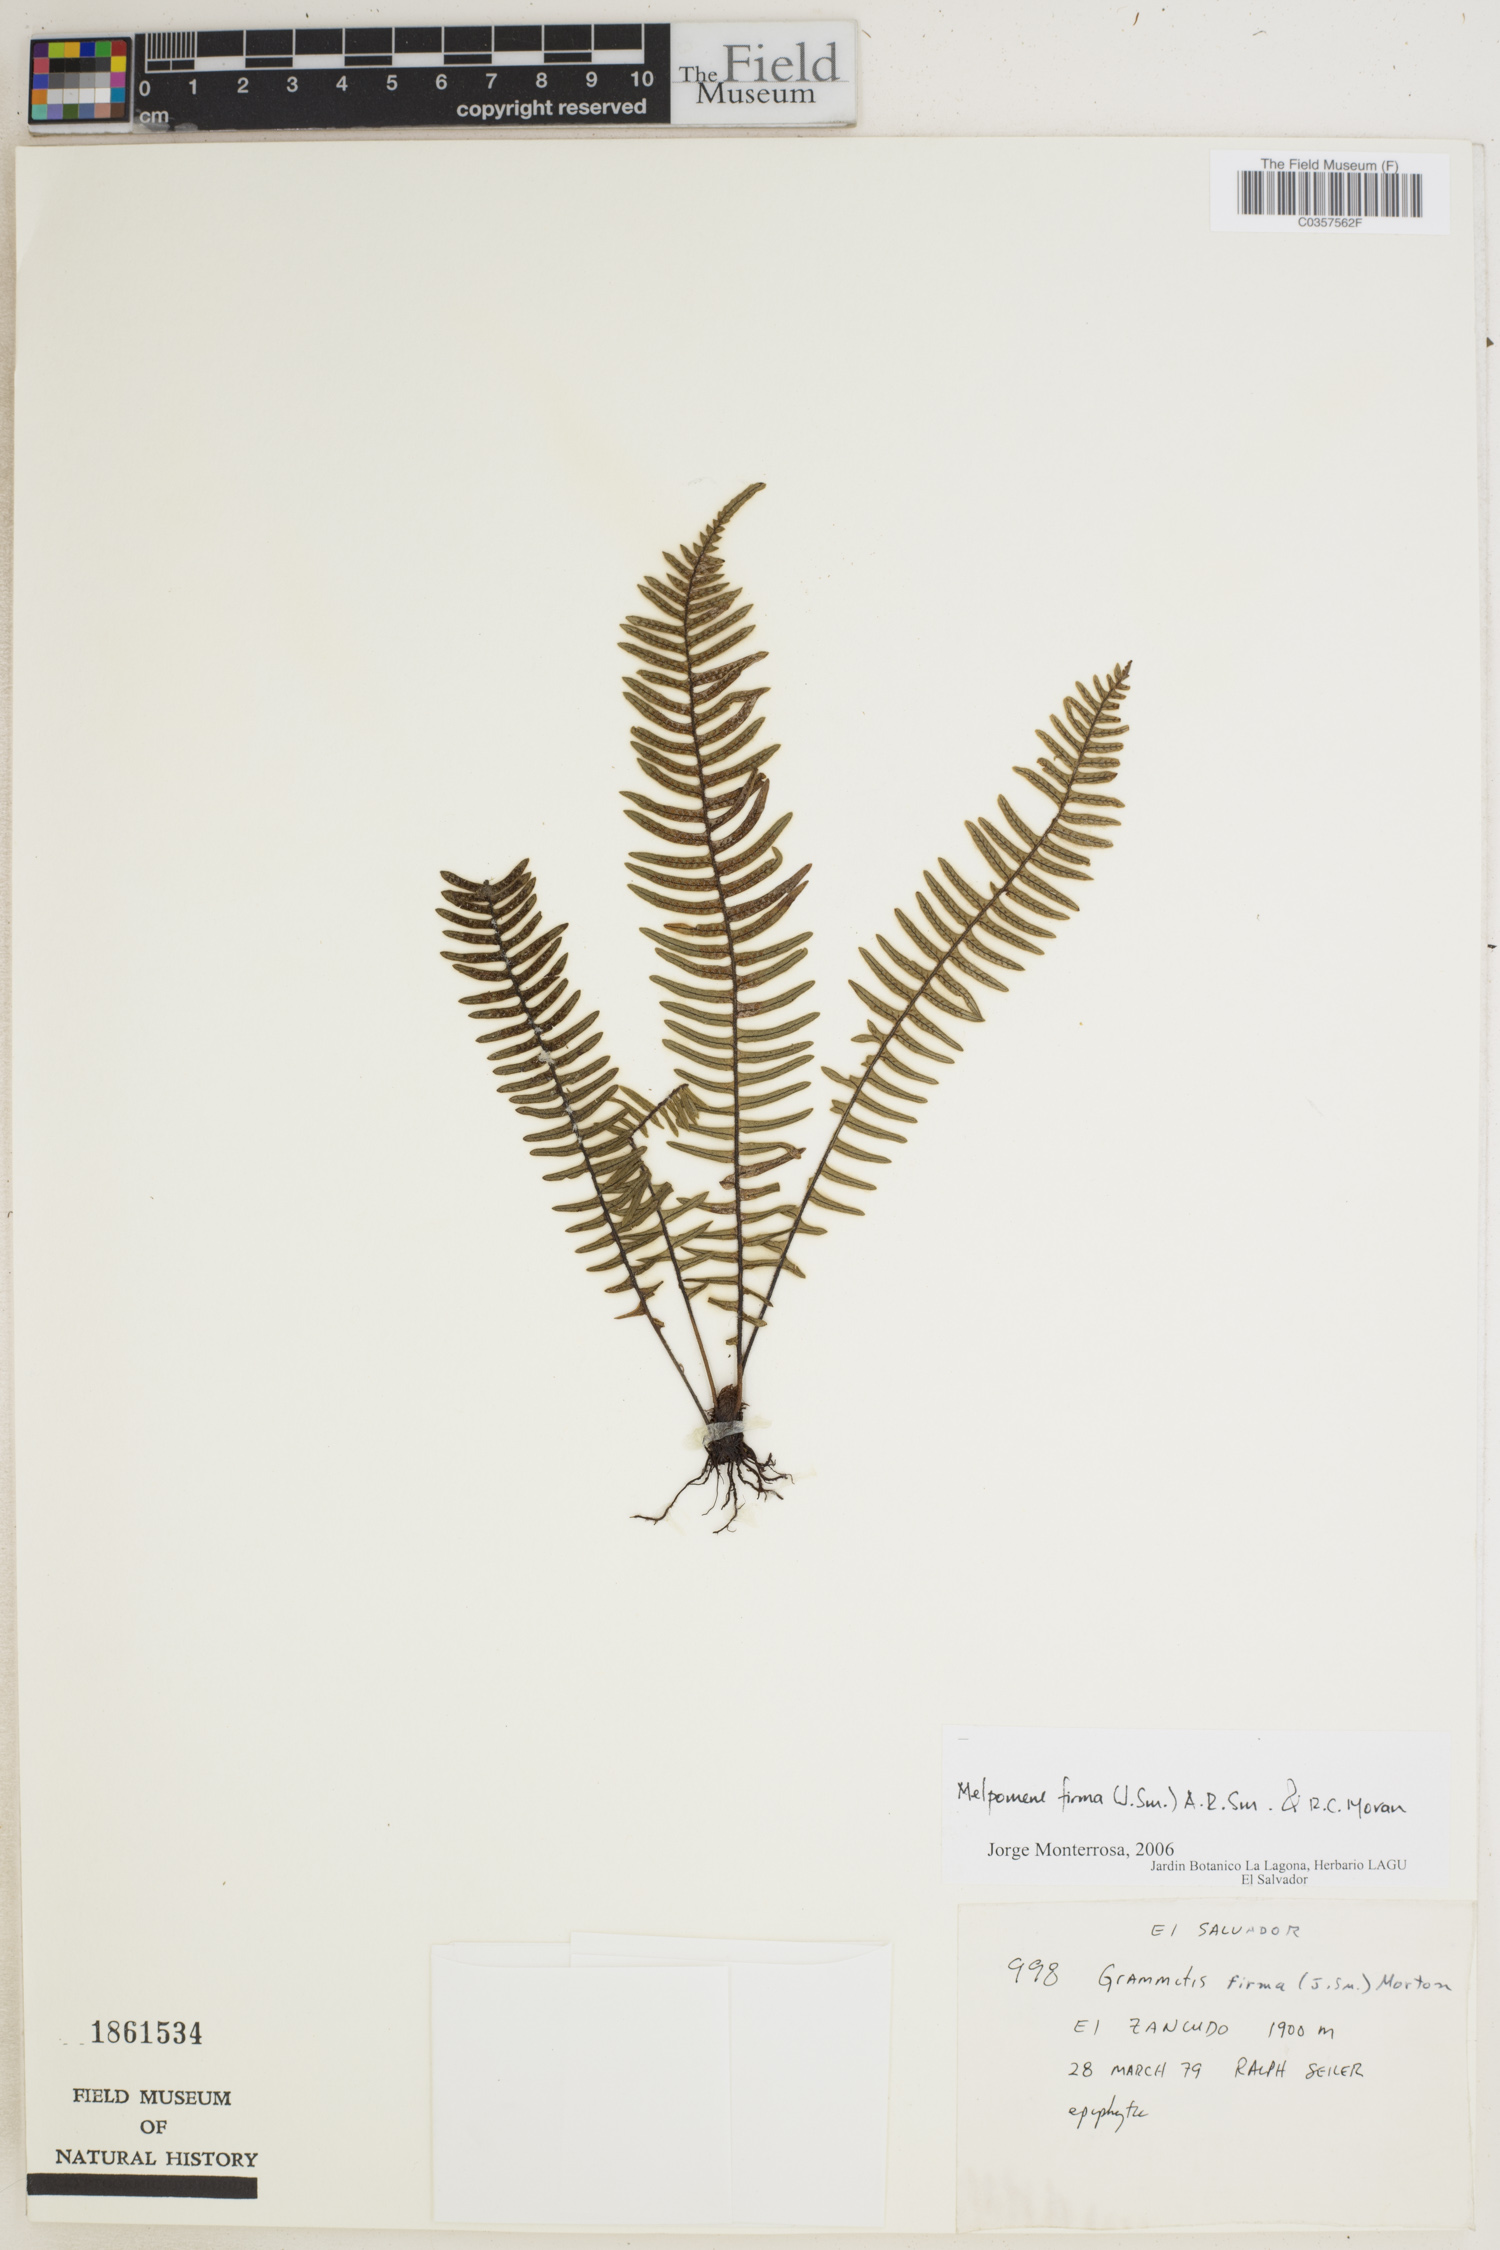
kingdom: Plantae
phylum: Tracheophyta
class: Polypodiopsida
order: Polypodiales
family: Polypodiaceae
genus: Melpomene
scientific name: Melpomene firma
